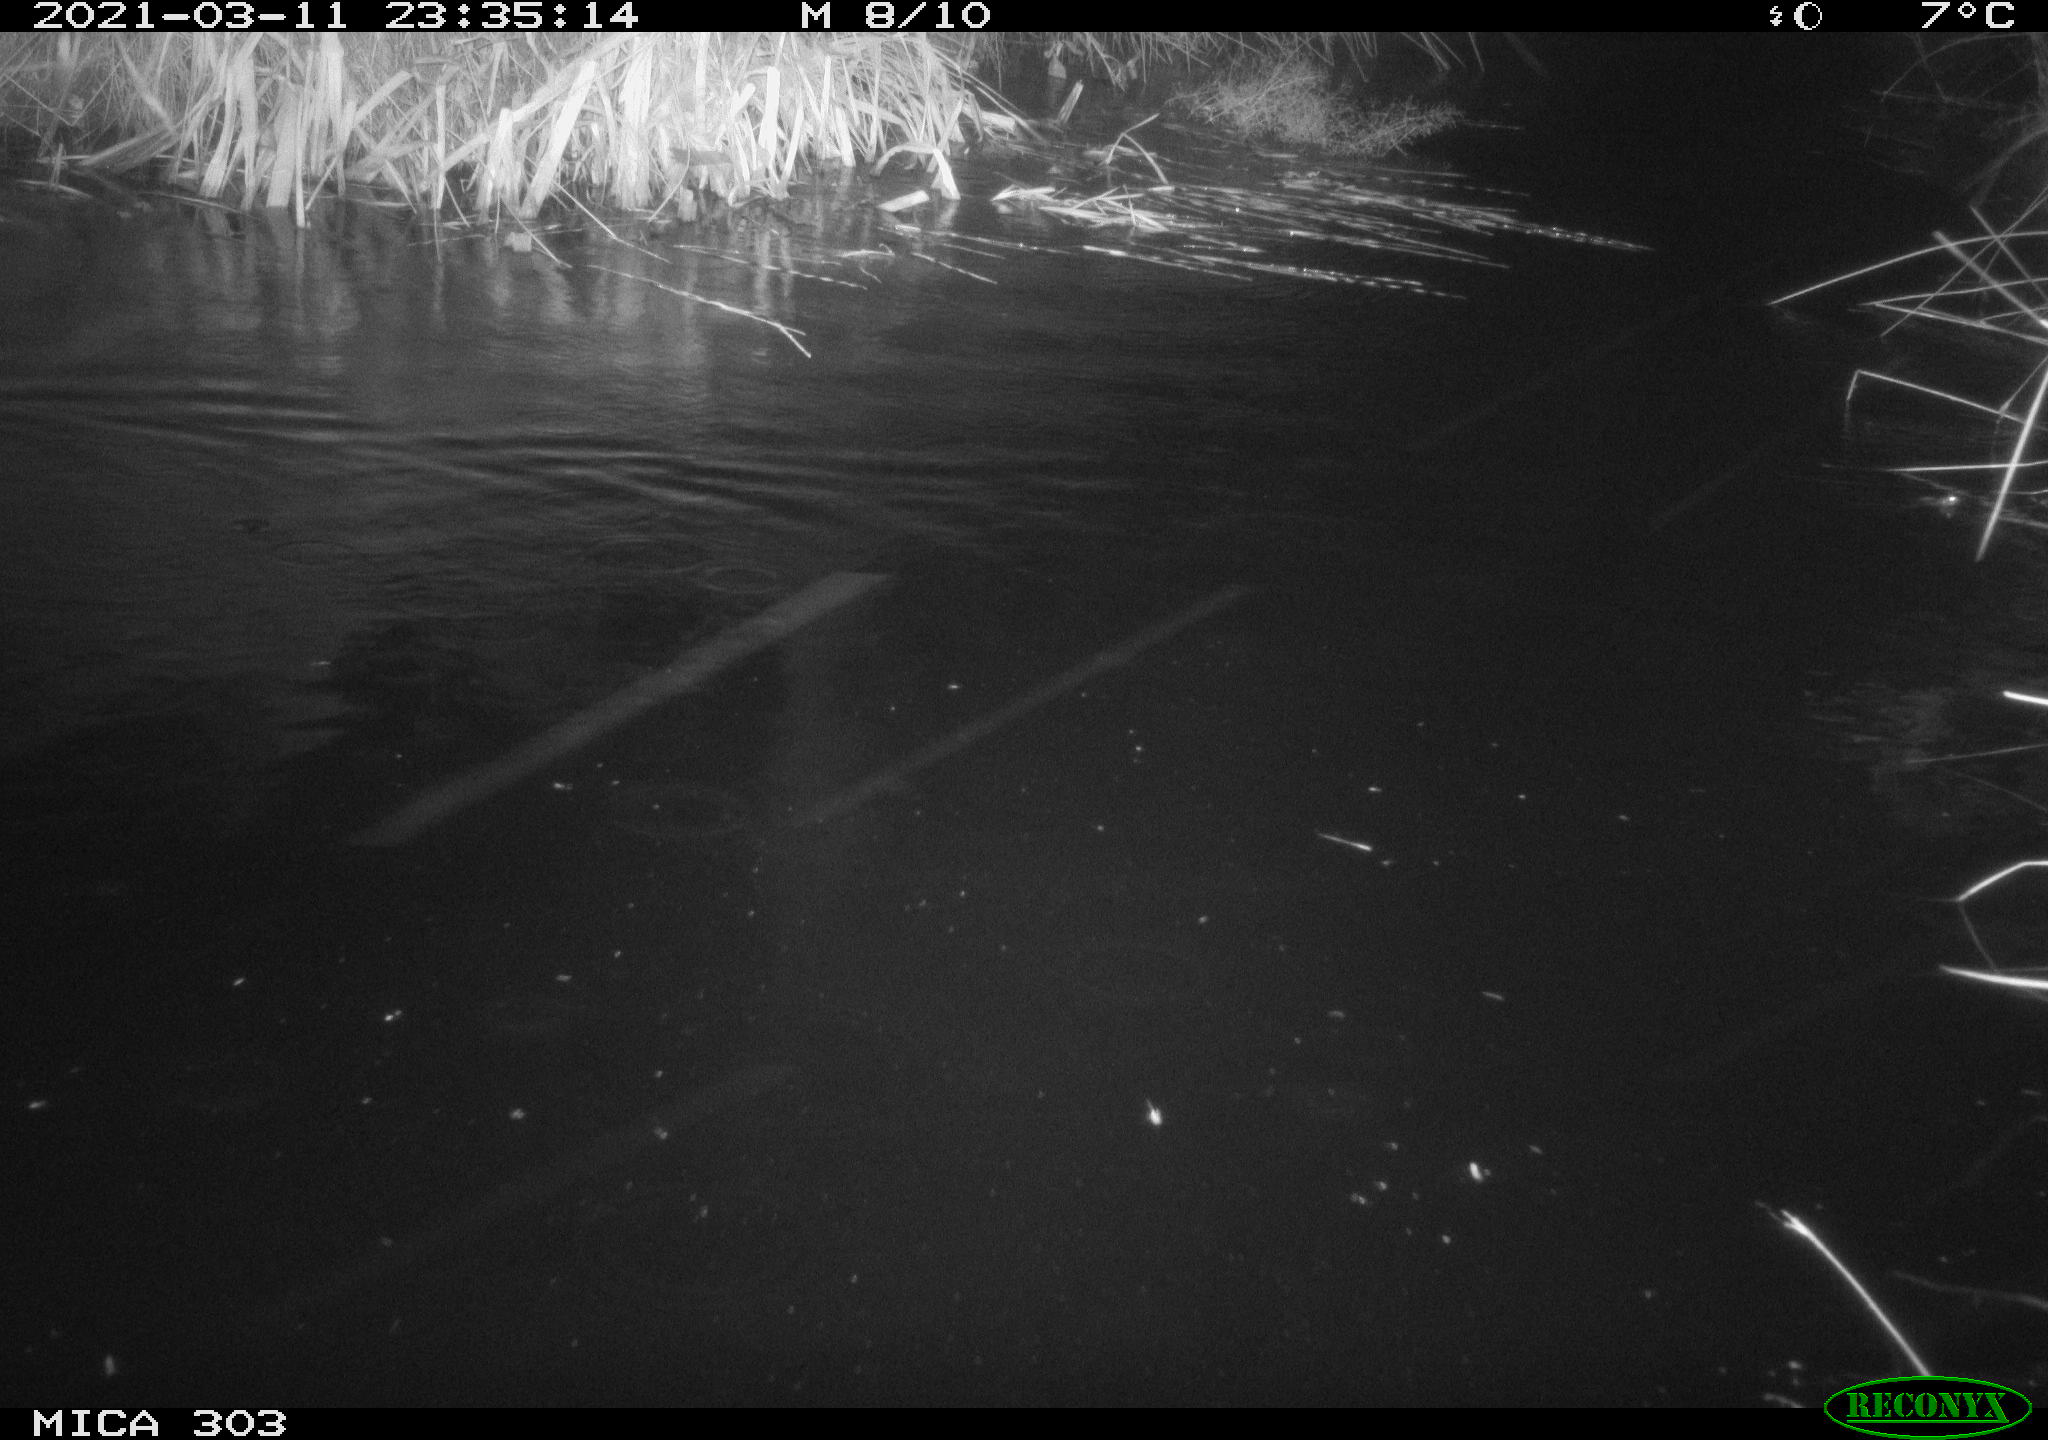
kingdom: Animalia
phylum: Chordata
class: Mammalia
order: Rodentia
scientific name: Rodentia
